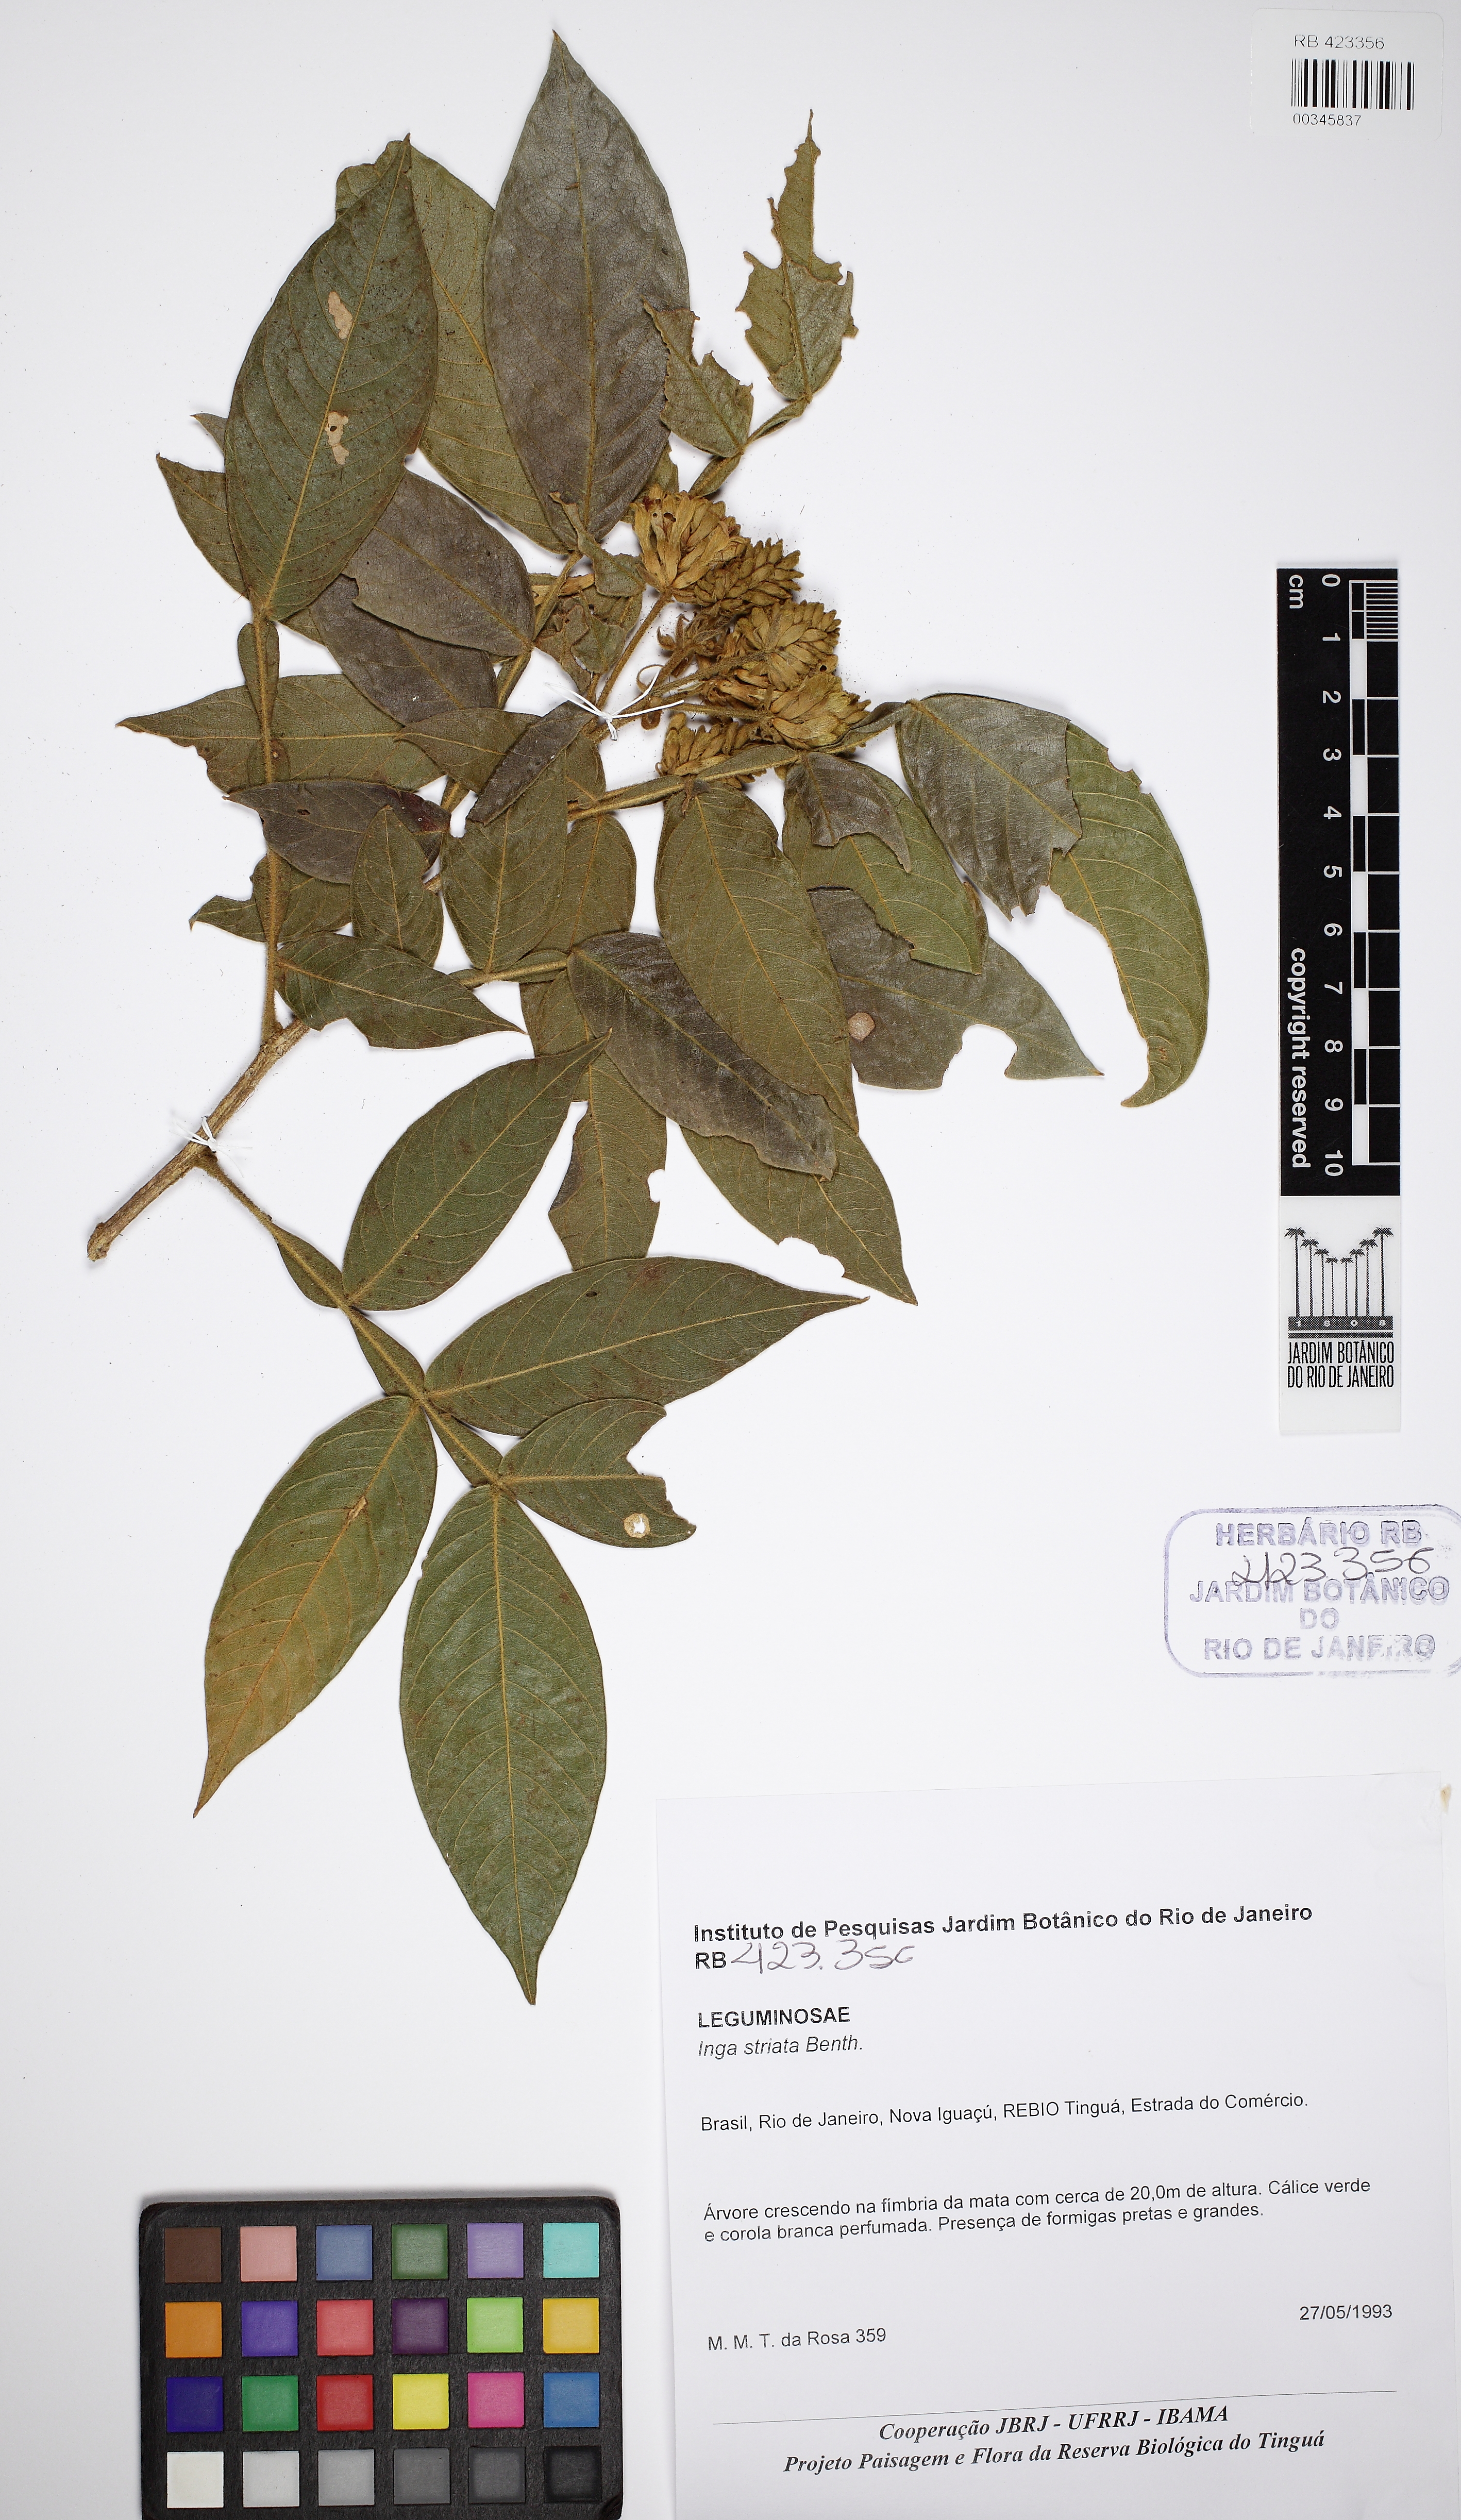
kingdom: Plantae
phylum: Tracheophyta
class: Magnoliopsida
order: Fabales
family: Fabaceae
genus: Inga
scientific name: Inga striata
